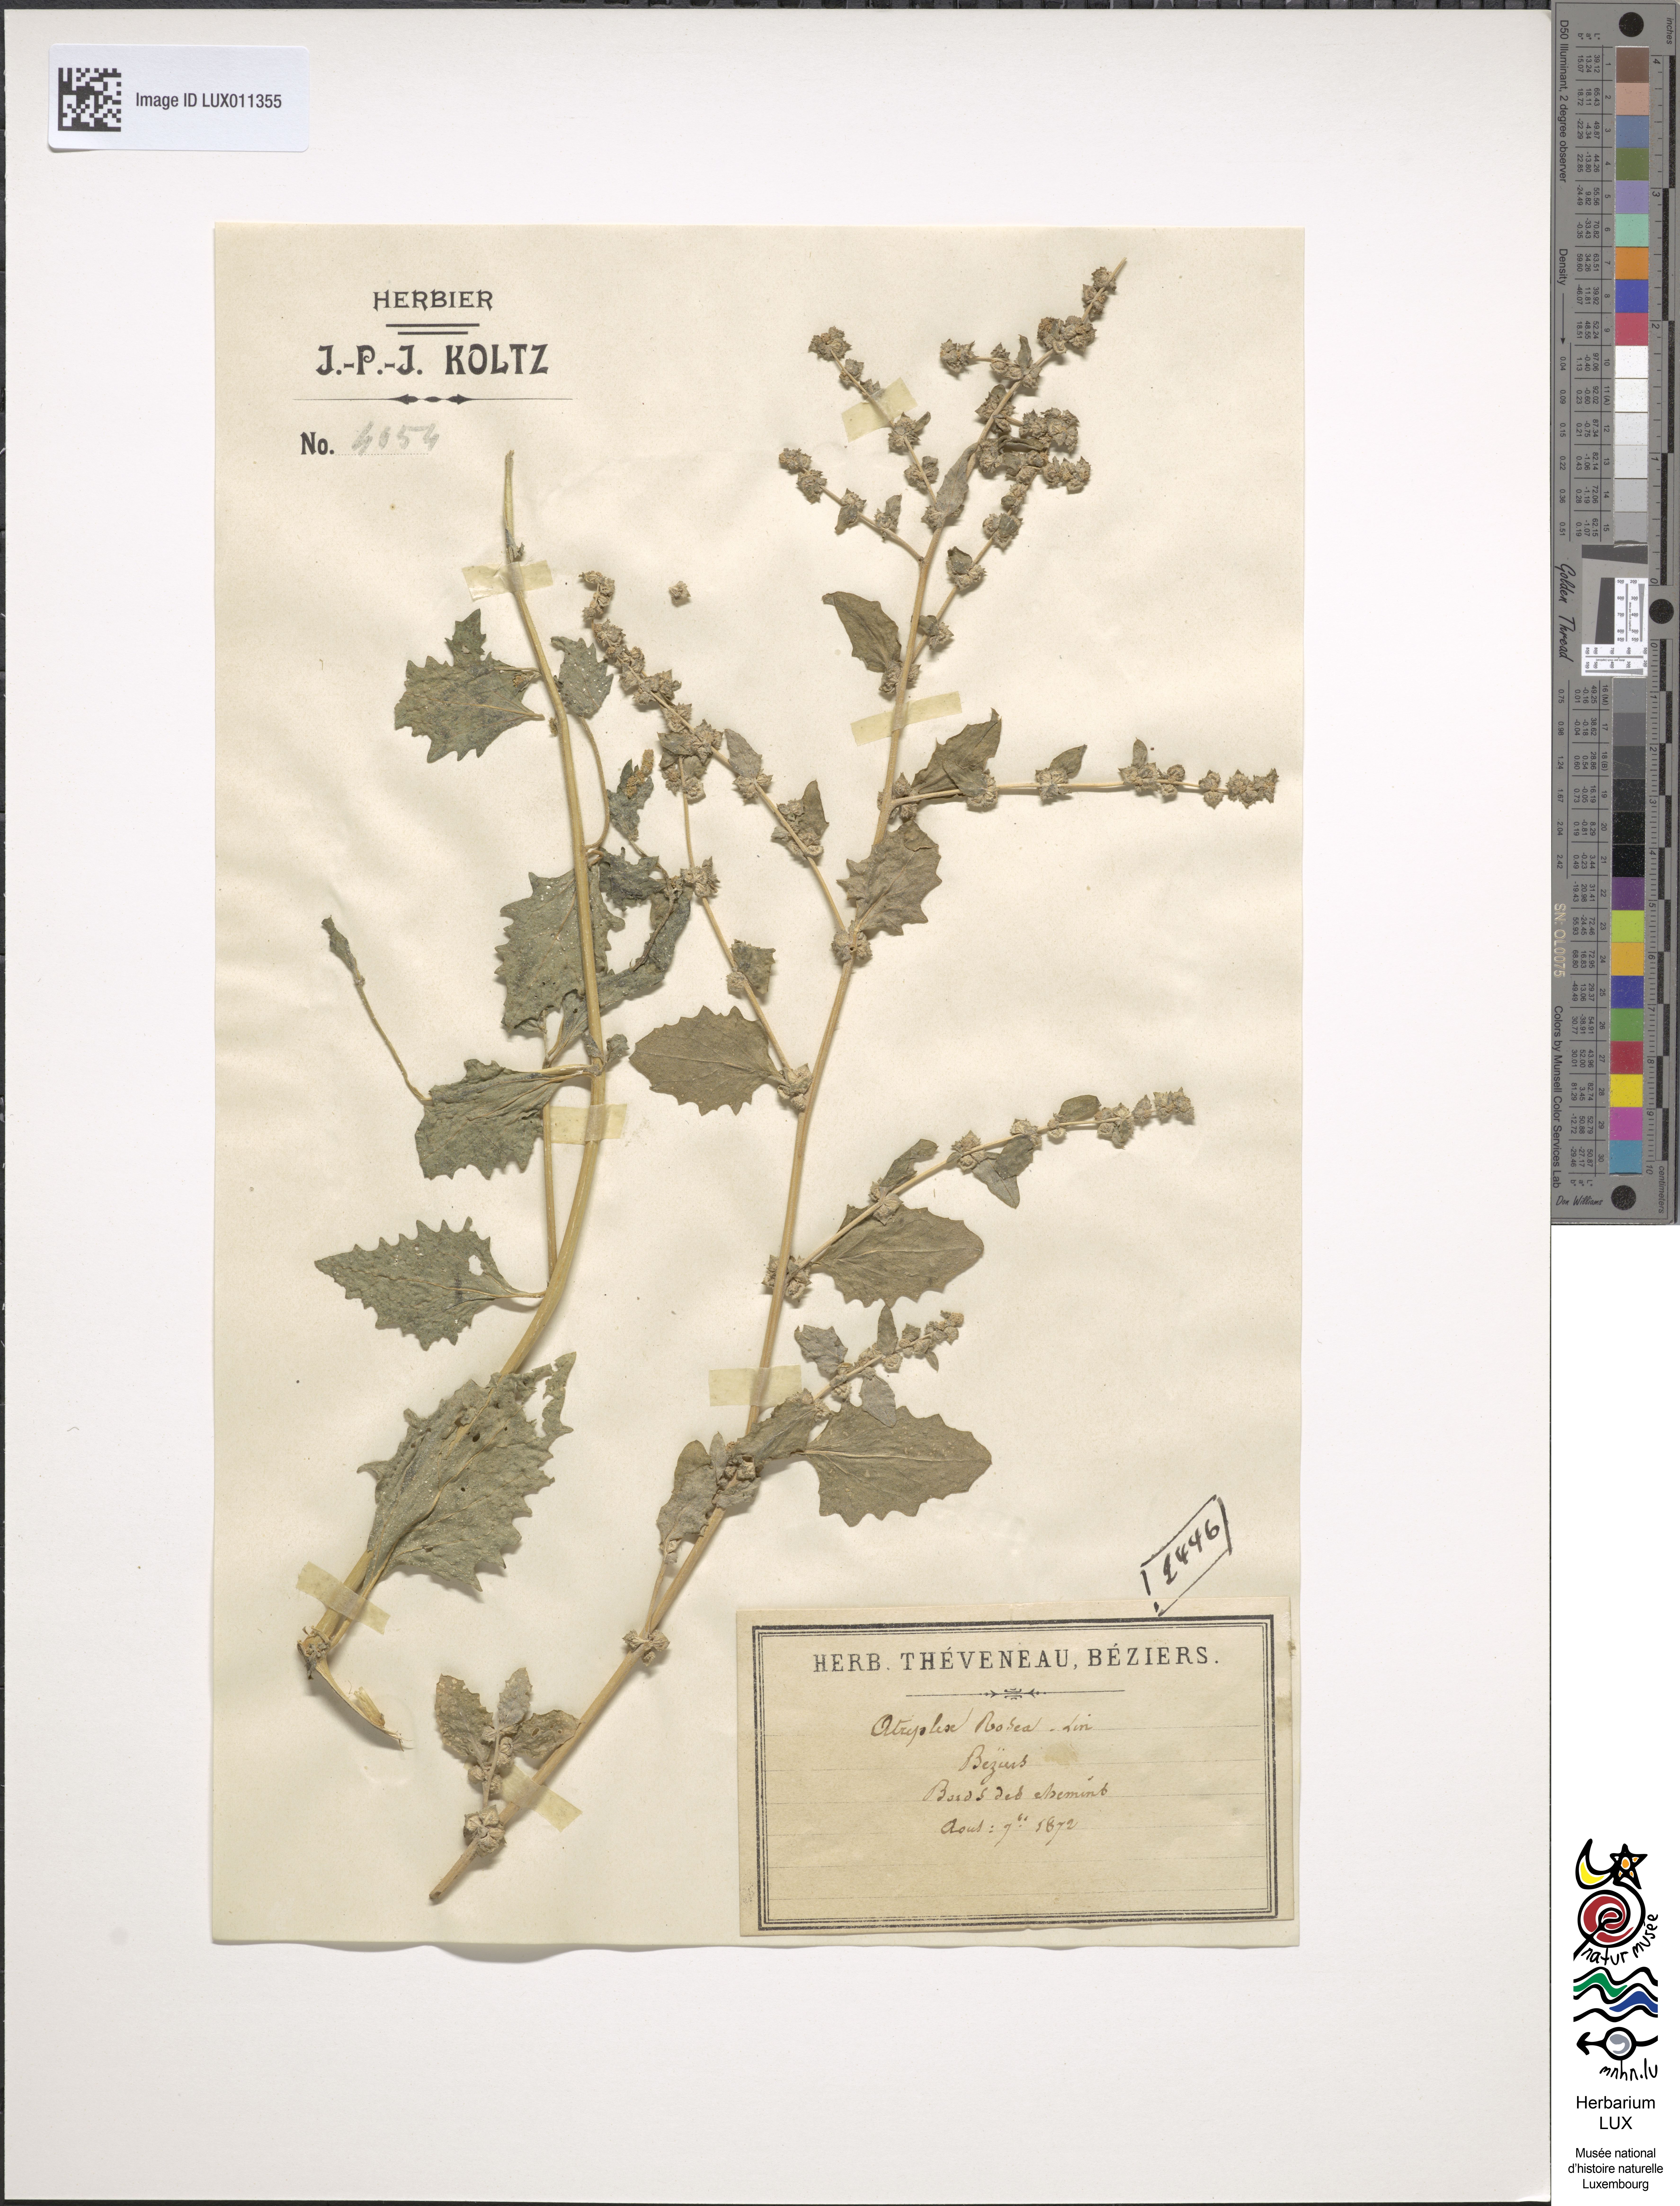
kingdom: Plantae
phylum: Tracheophyta
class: Magnoliopsida
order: Caryophyllales
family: Amaranthaceae
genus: Atriplex
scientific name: Atriplex rosea
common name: Tumbling saltweed
